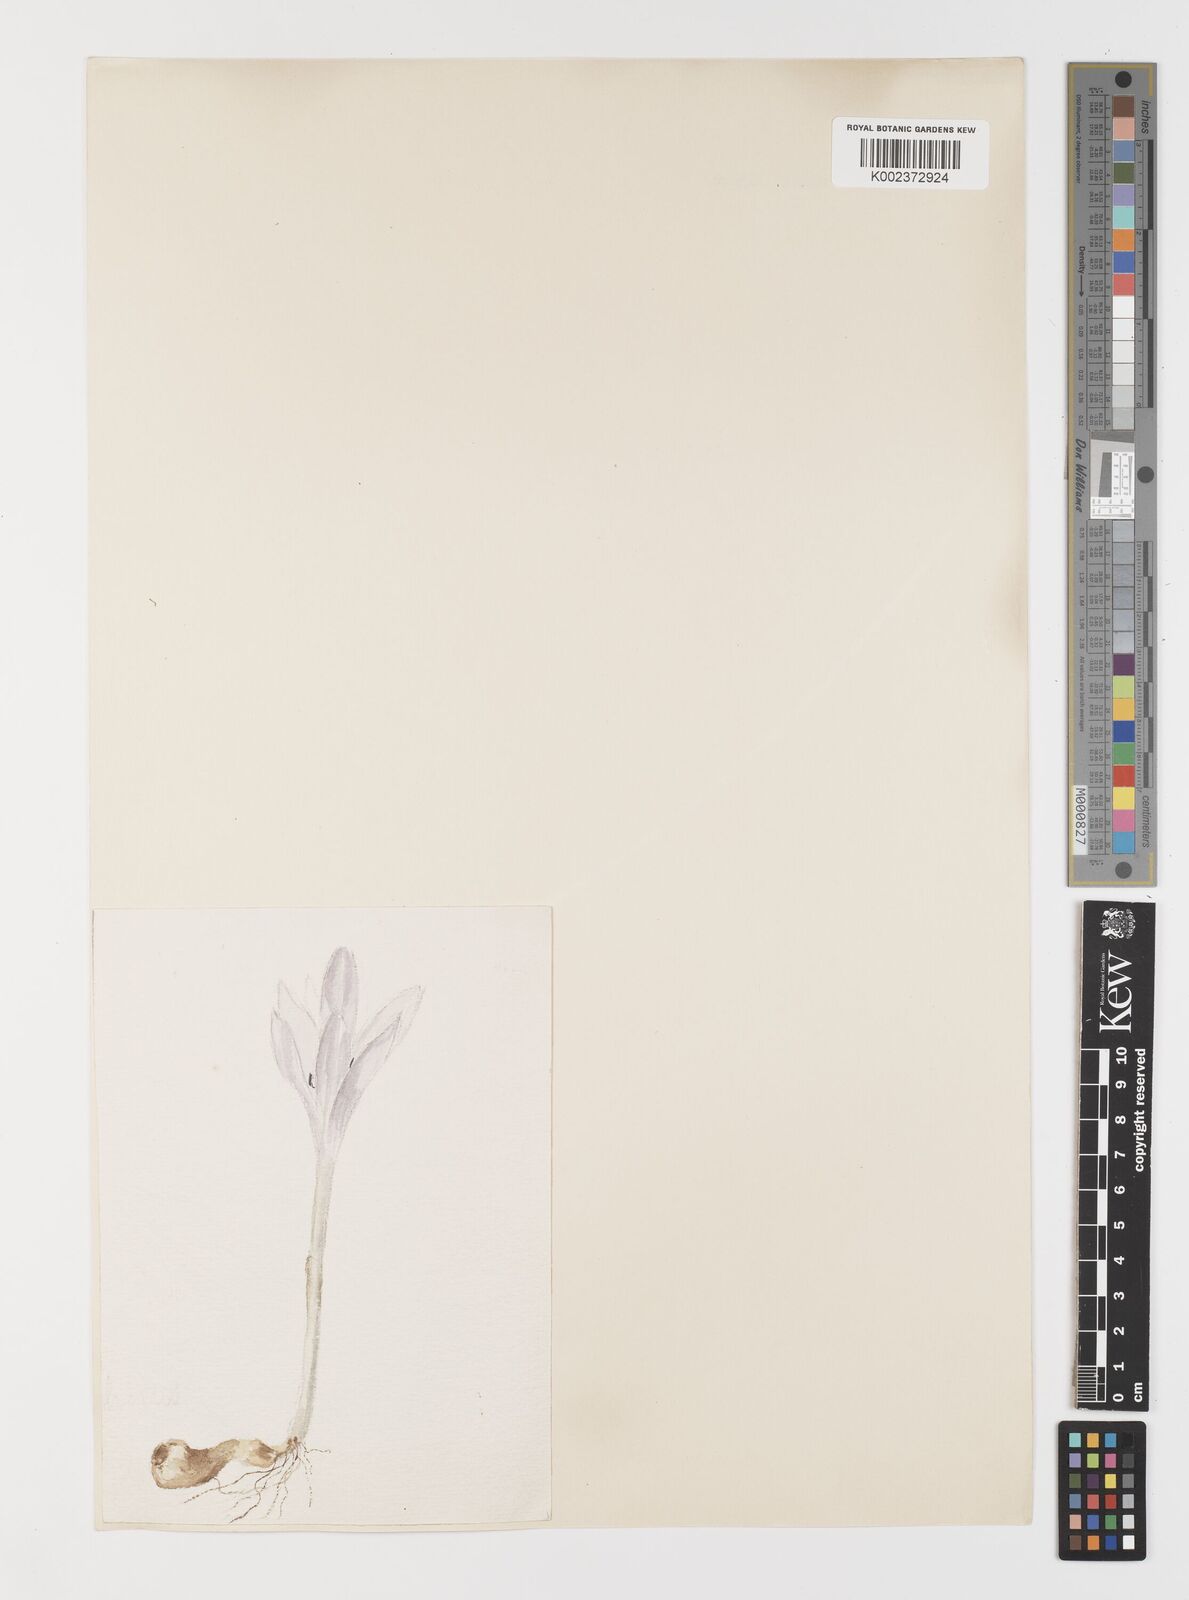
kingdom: Plantae
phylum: Tracheophyta
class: Liliopsida
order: Liliales
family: Colchicaceae
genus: Colchicum
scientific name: Colchicum boissieri
